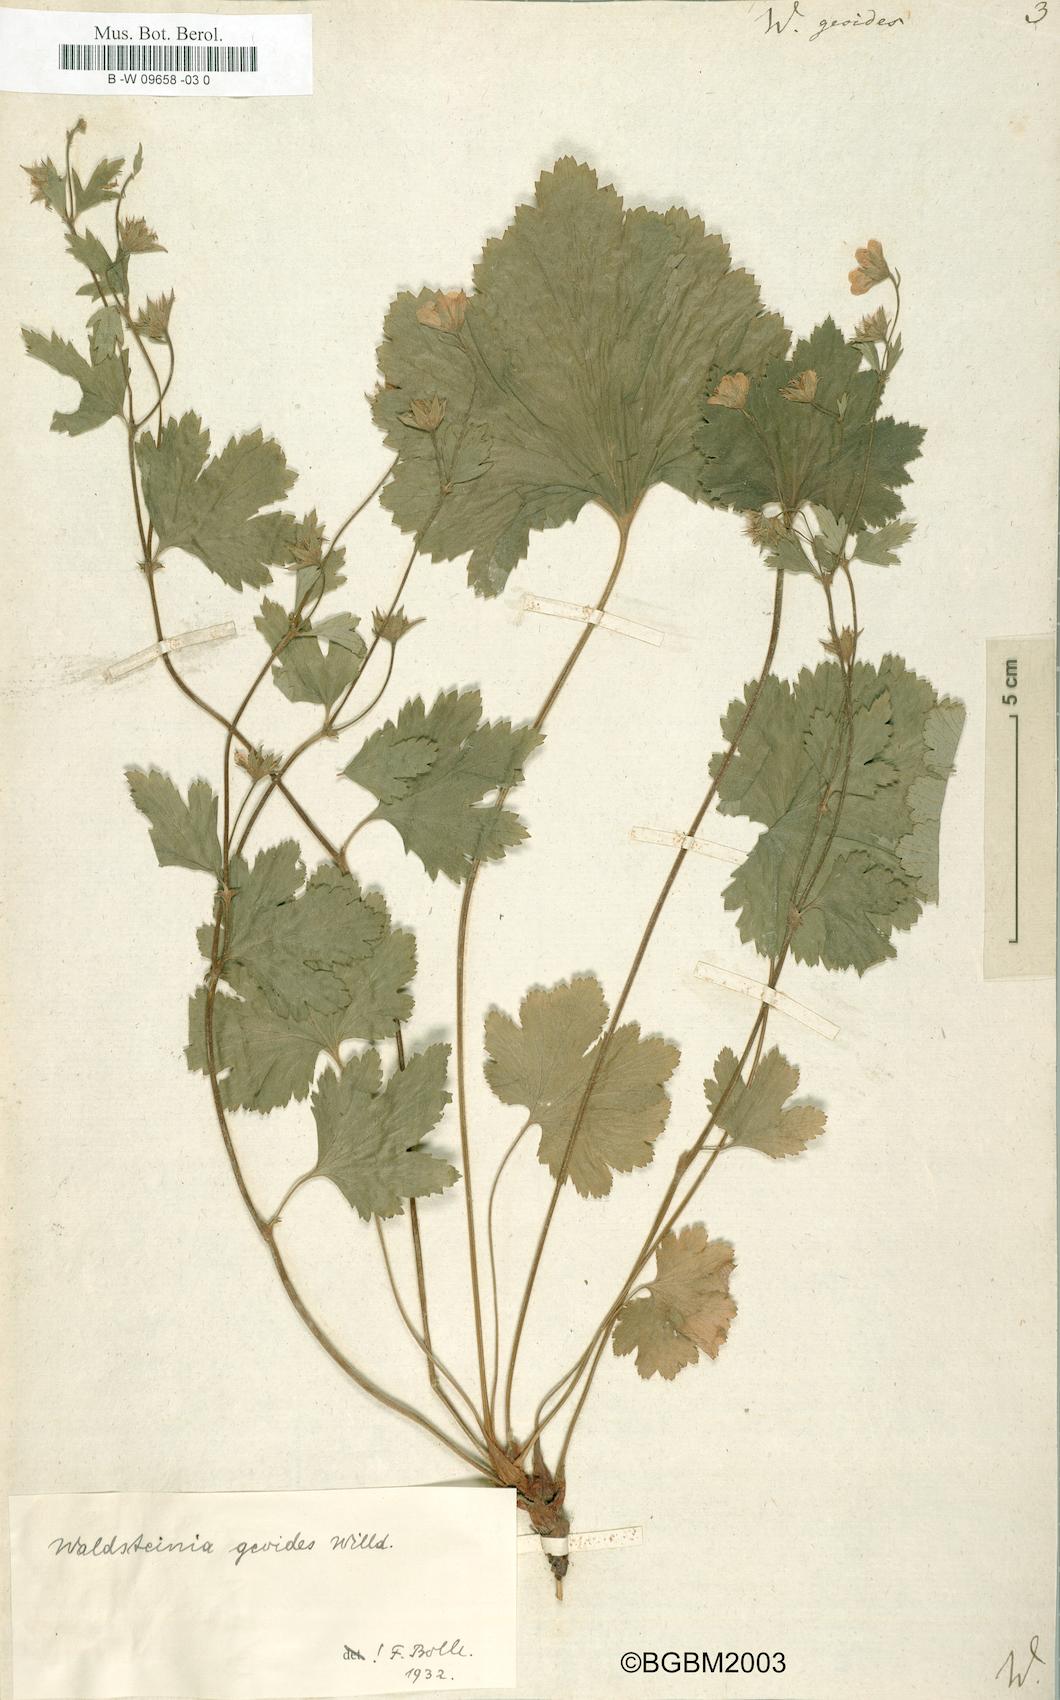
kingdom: Plantae
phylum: Tracheophyta
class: Magnoliopsida
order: Rosales
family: Rosaceae
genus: Geum
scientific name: Geum waldsteinia
